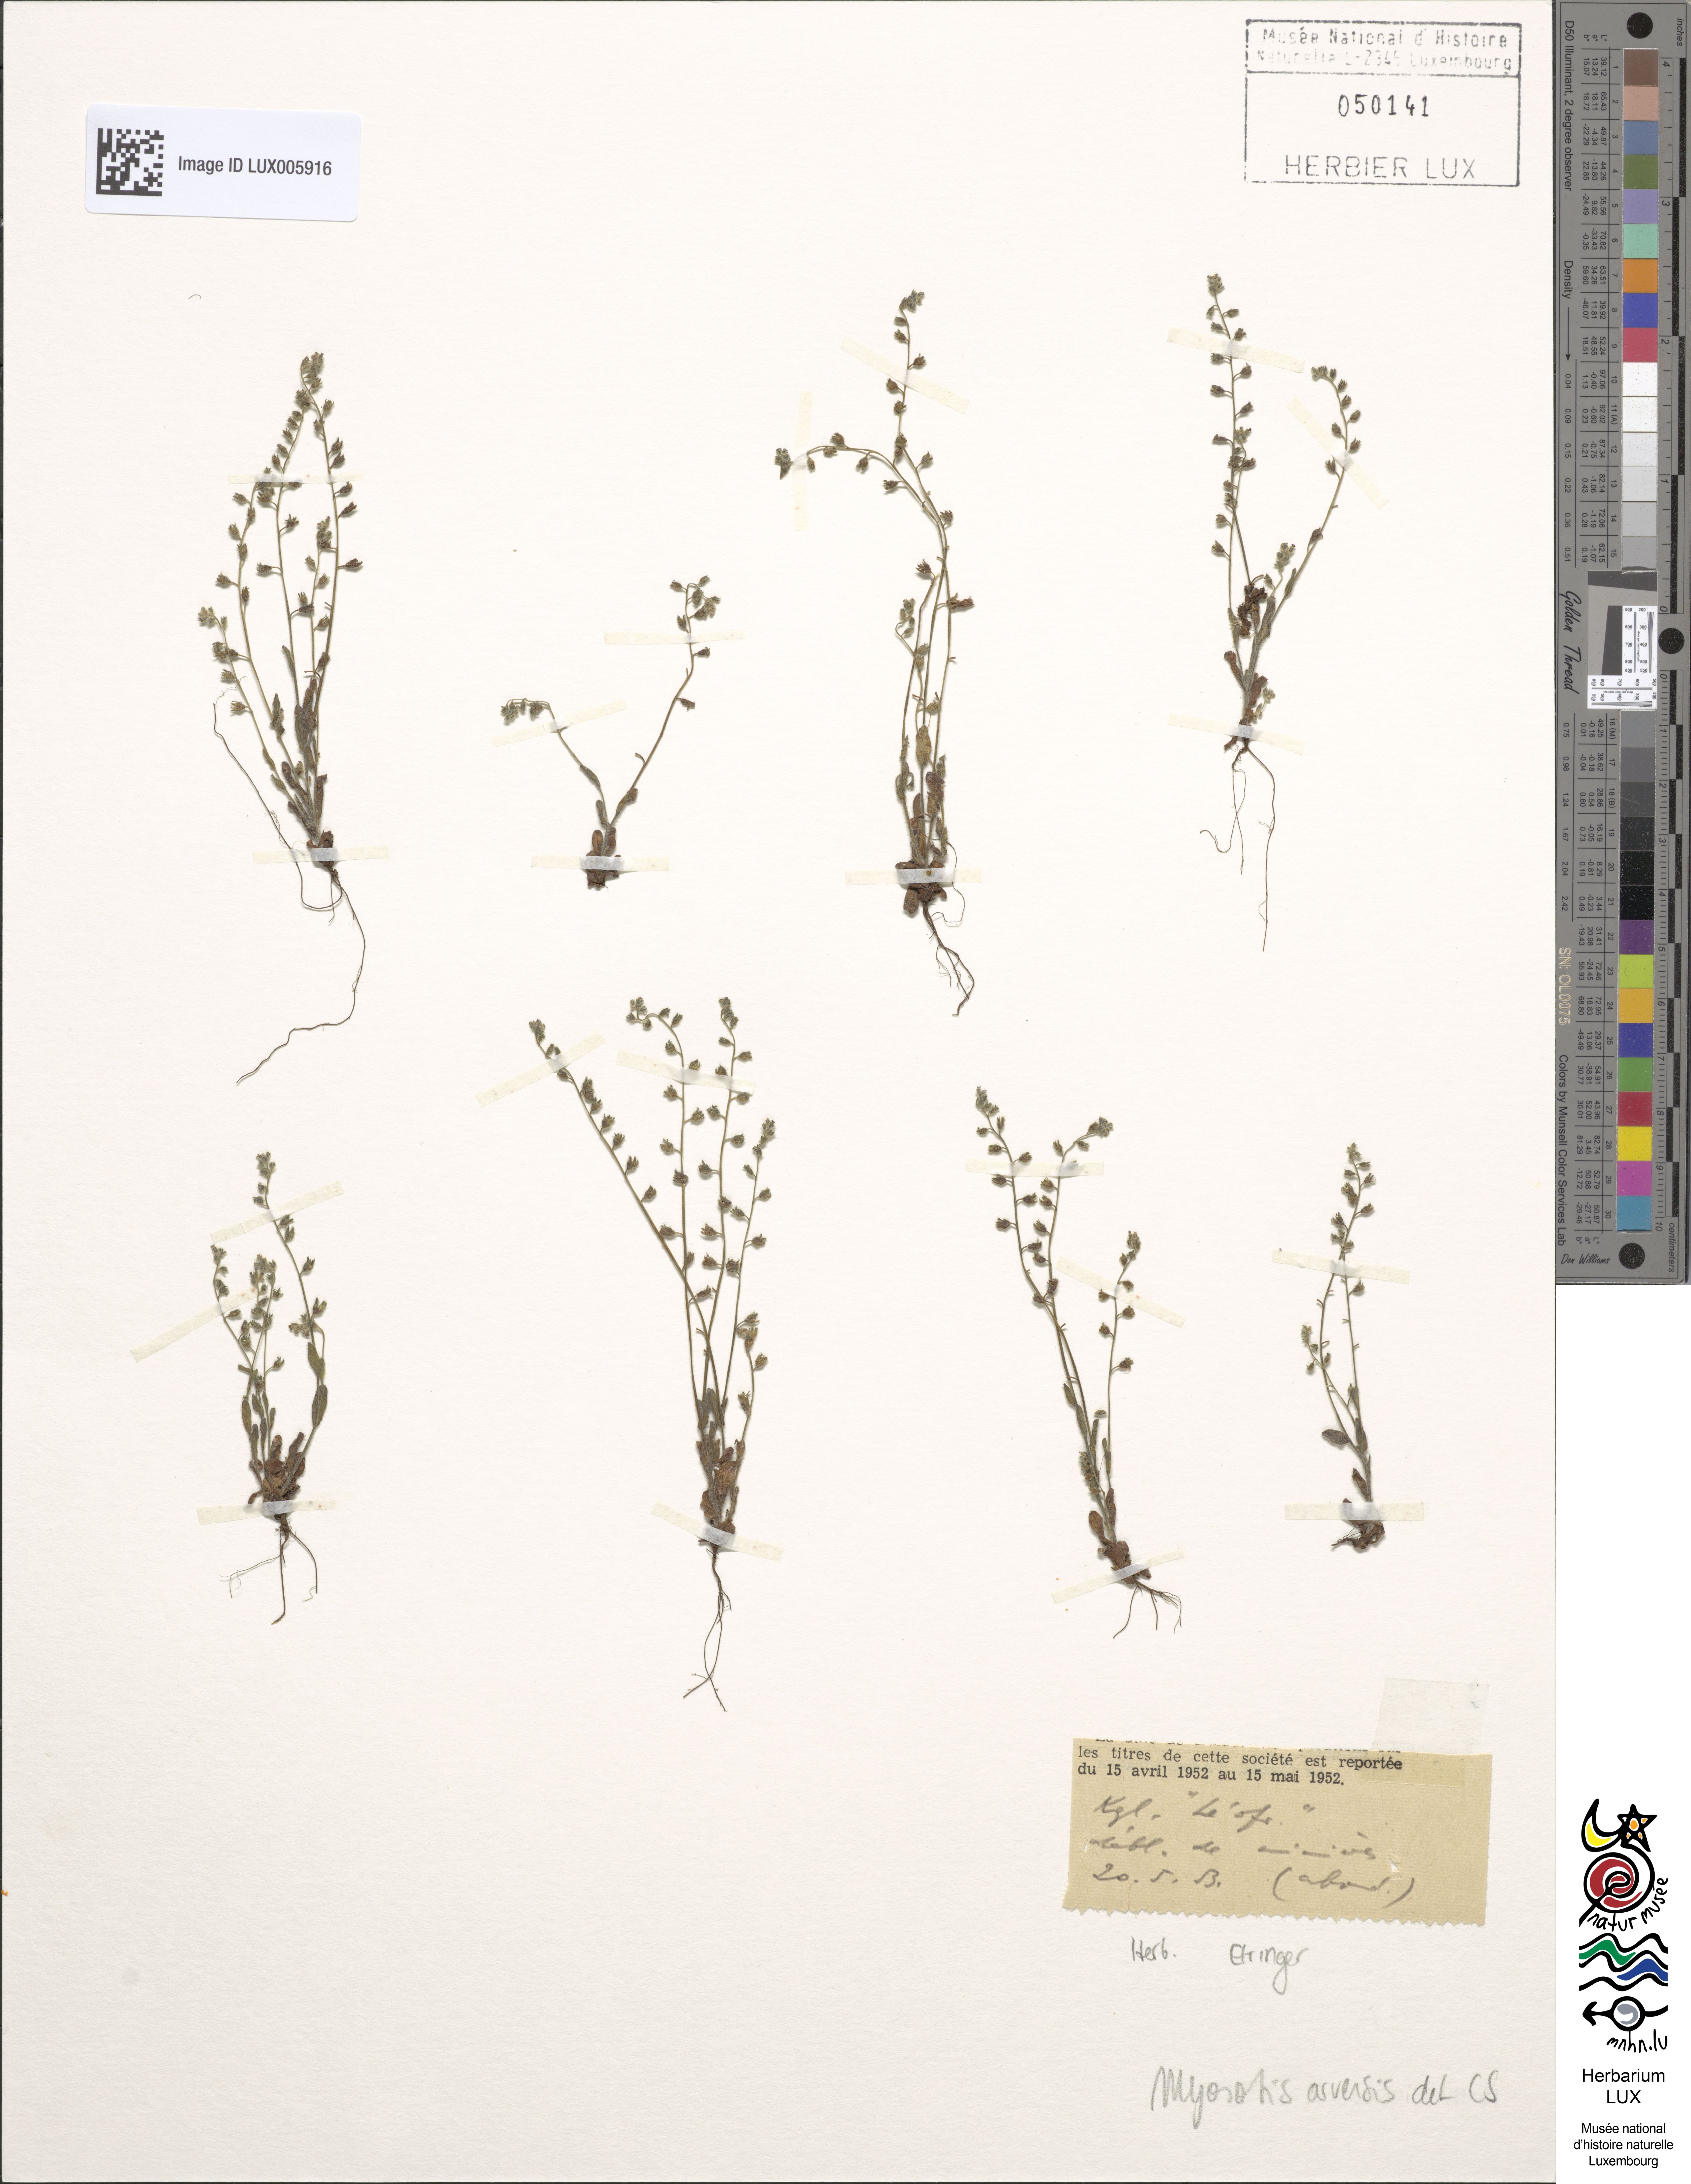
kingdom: Plantae
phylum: Tracheophyta
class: Magnoliopsida
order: Boraginales
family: Boraginaceae
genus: Myosotis
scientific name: Myosotis arvensis
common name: Field forget-me-not
